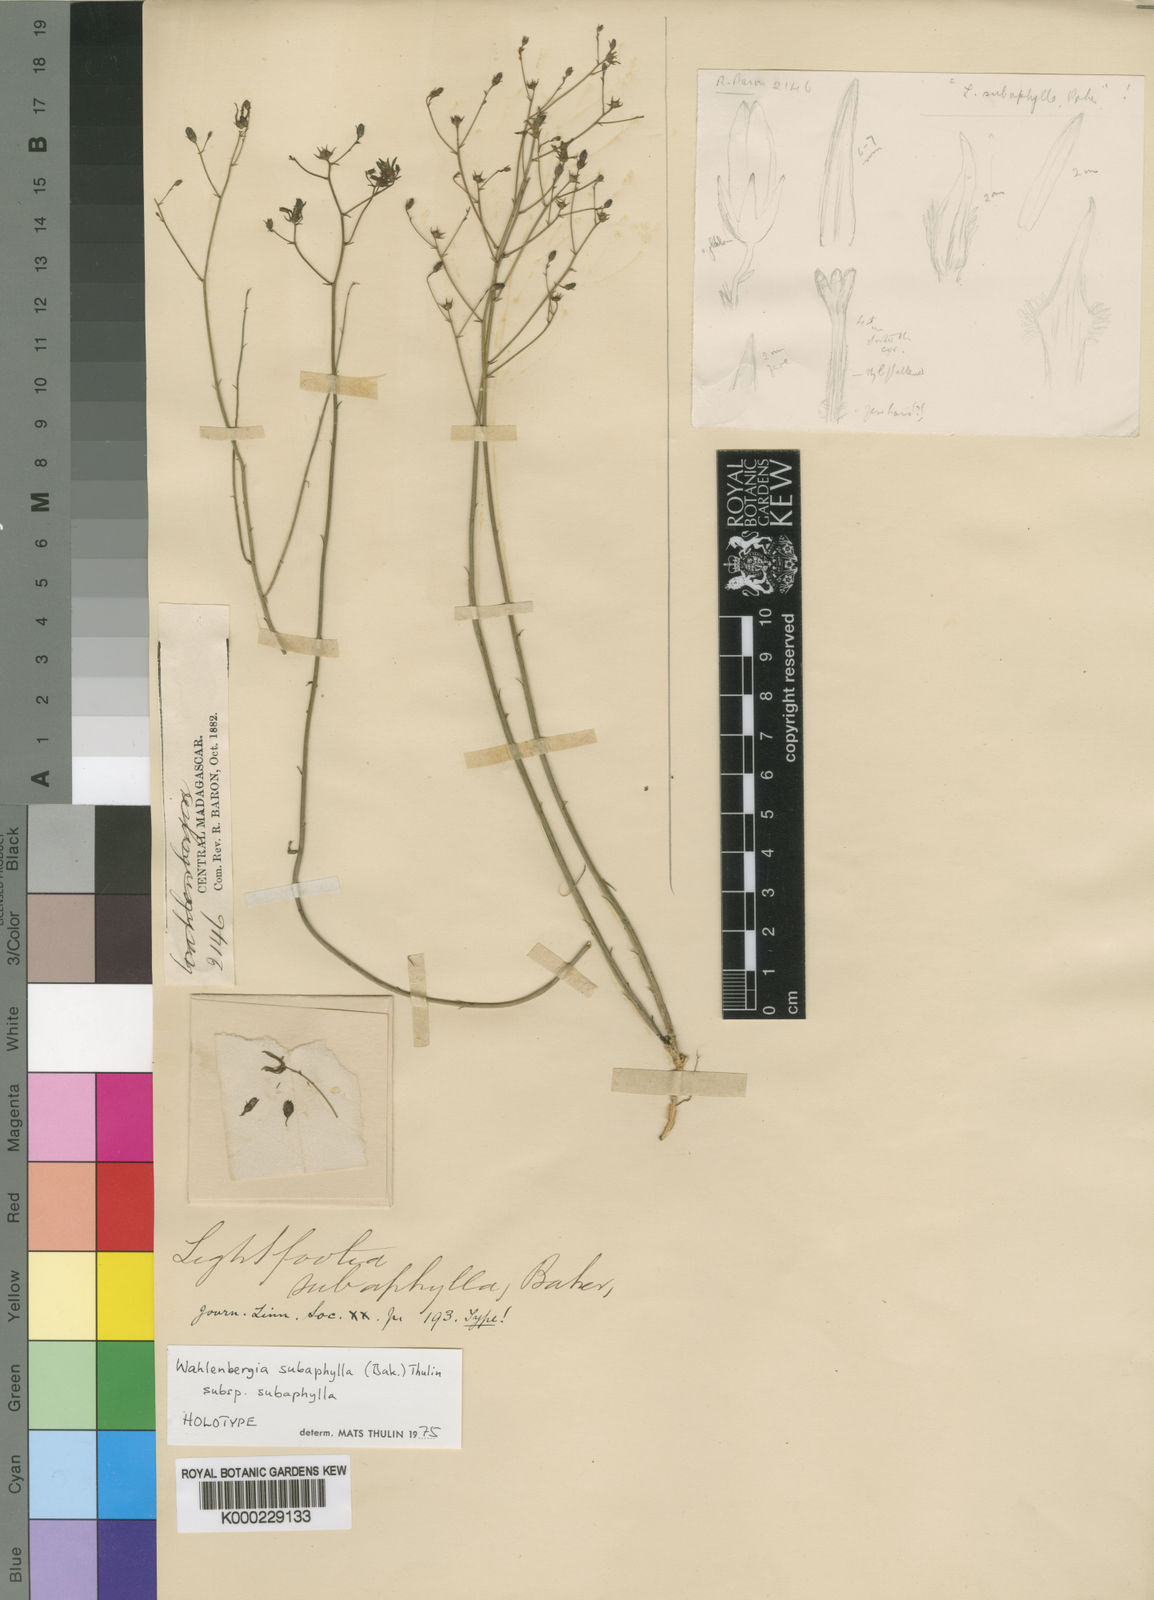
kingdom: Plantae
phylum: Tracheophyta
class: Magnoliopsida
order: Asterales
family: Campanulaceae
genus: Wahlenbergia
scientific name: Wahlenbergia subaphylla
